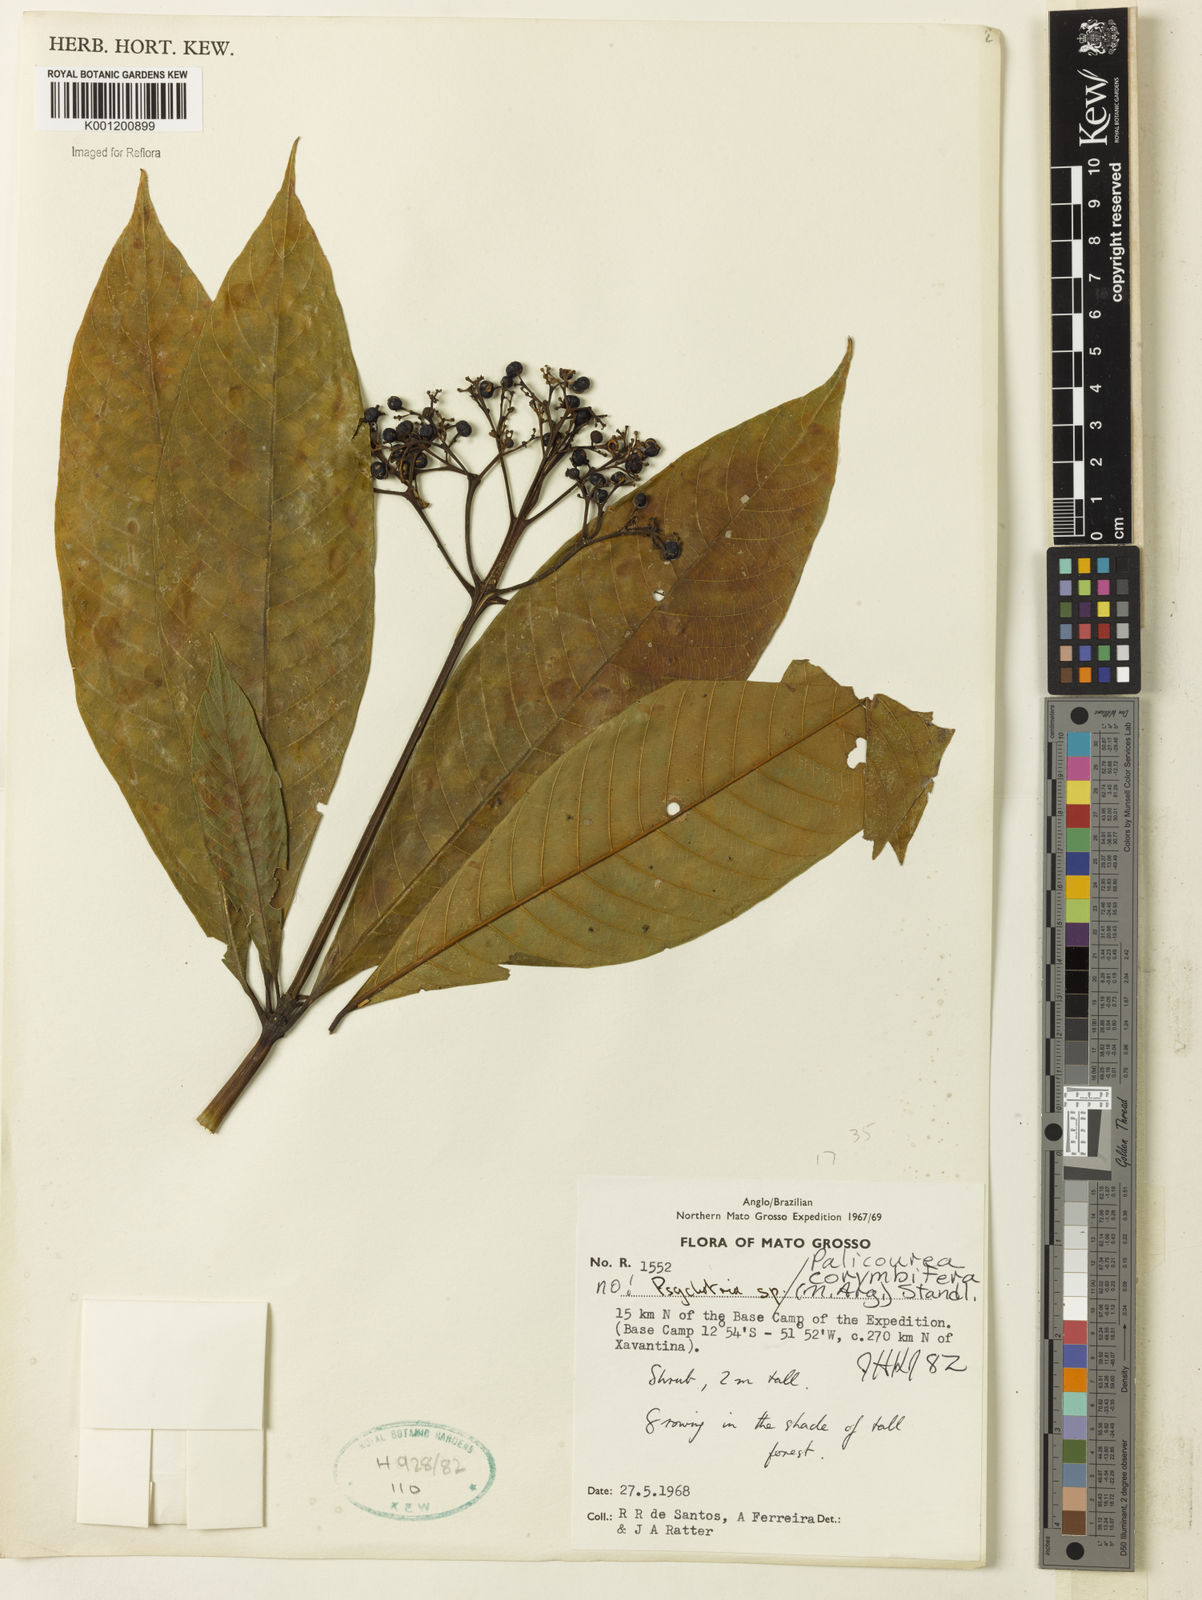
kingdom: Plantae
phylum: Tracheophyta
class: Magnoliopsida
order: Gentianales
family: Rubiaceae
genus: Palicourea
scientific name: Palicourea
